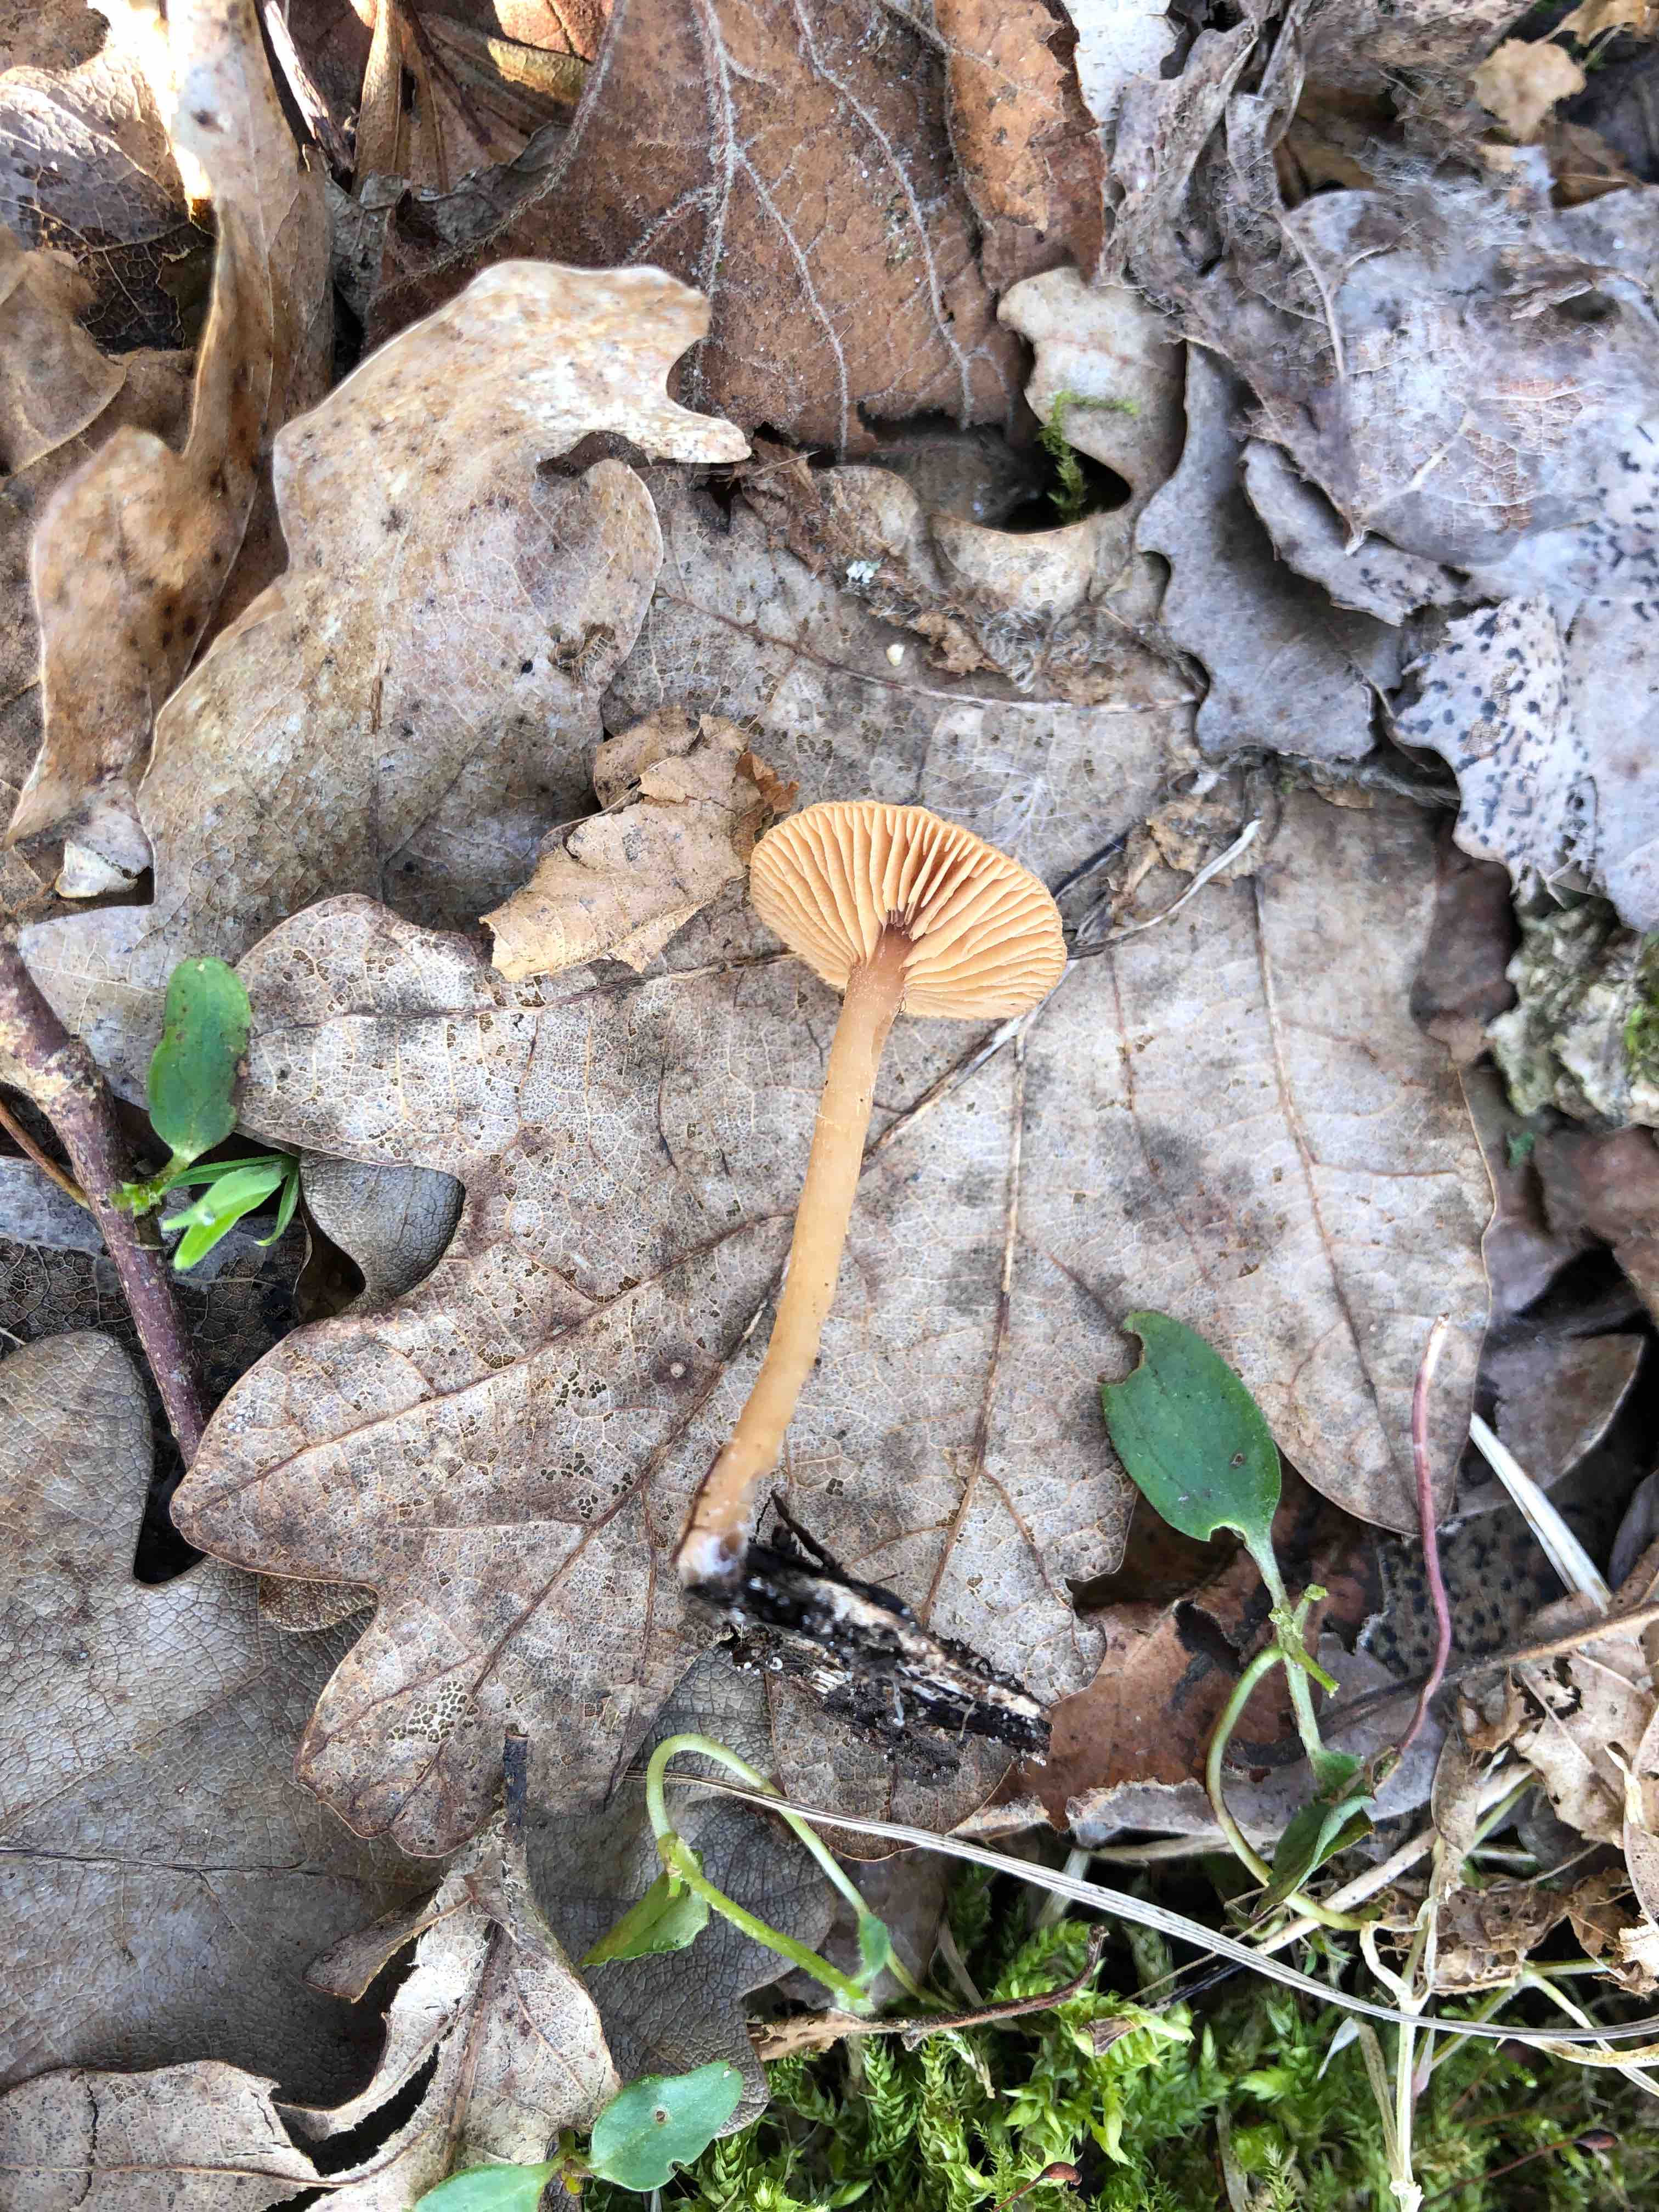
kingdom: Fungi
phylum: Basidiomycota
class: Agaricomycetes
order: Agaricales
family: Tubariaceae
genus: Tubaria
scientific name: Tubaria furfuracea
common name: kliddet fnughat
